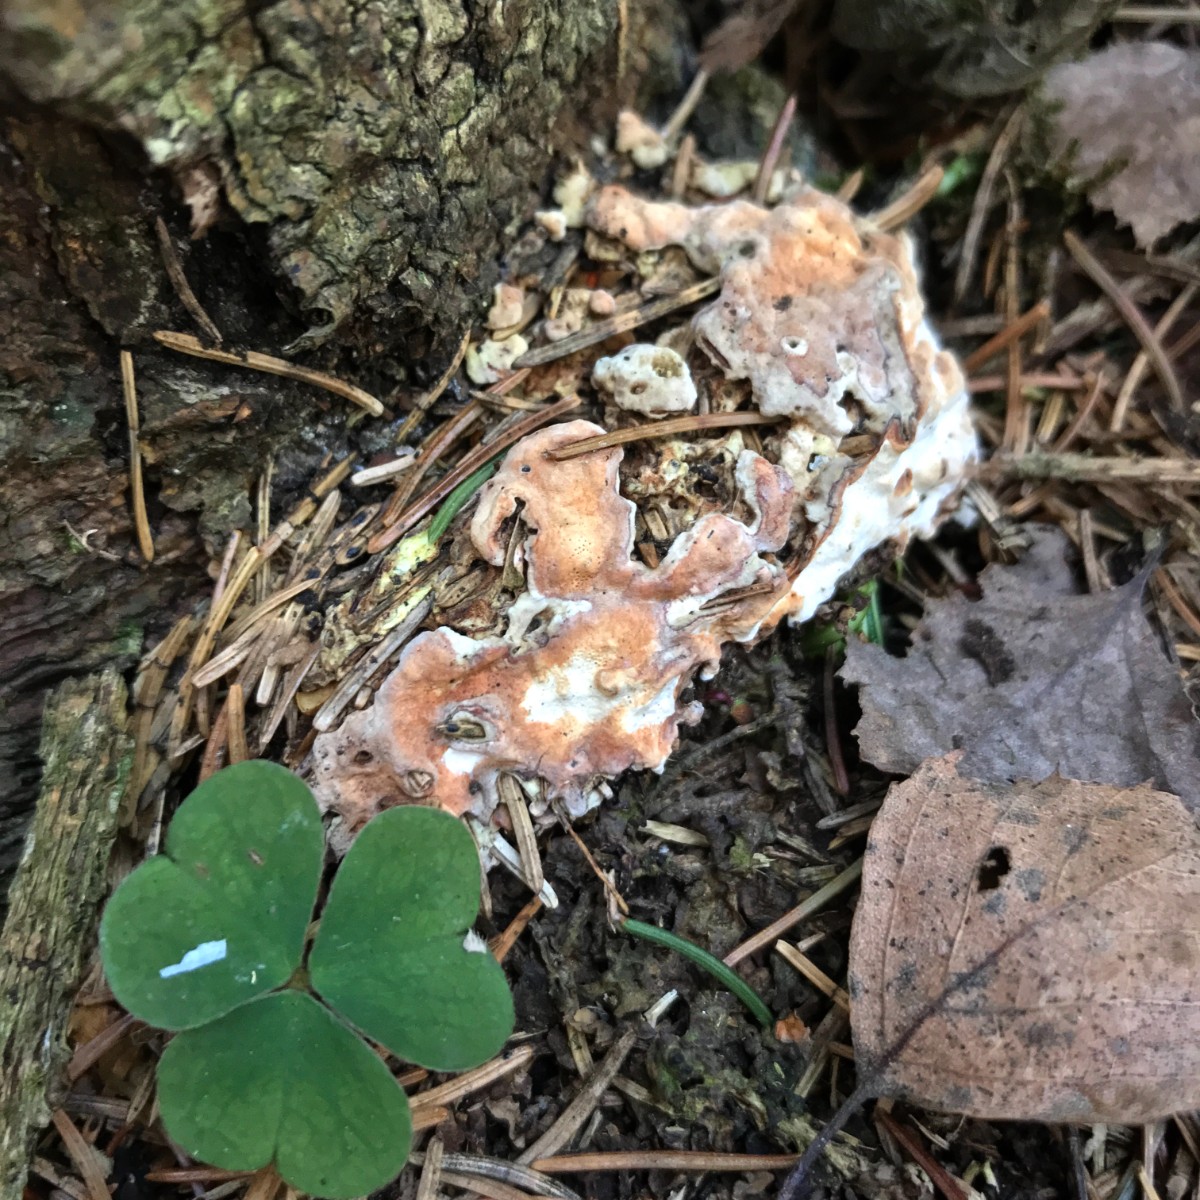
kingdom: Fungi
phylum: Basidiomycota
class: Agaricomycetes
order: Russulales
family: Bondarzewiaceae
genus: Heterobasidion
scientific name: Heterobasidion annosum
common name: almindelig rodfordærver
